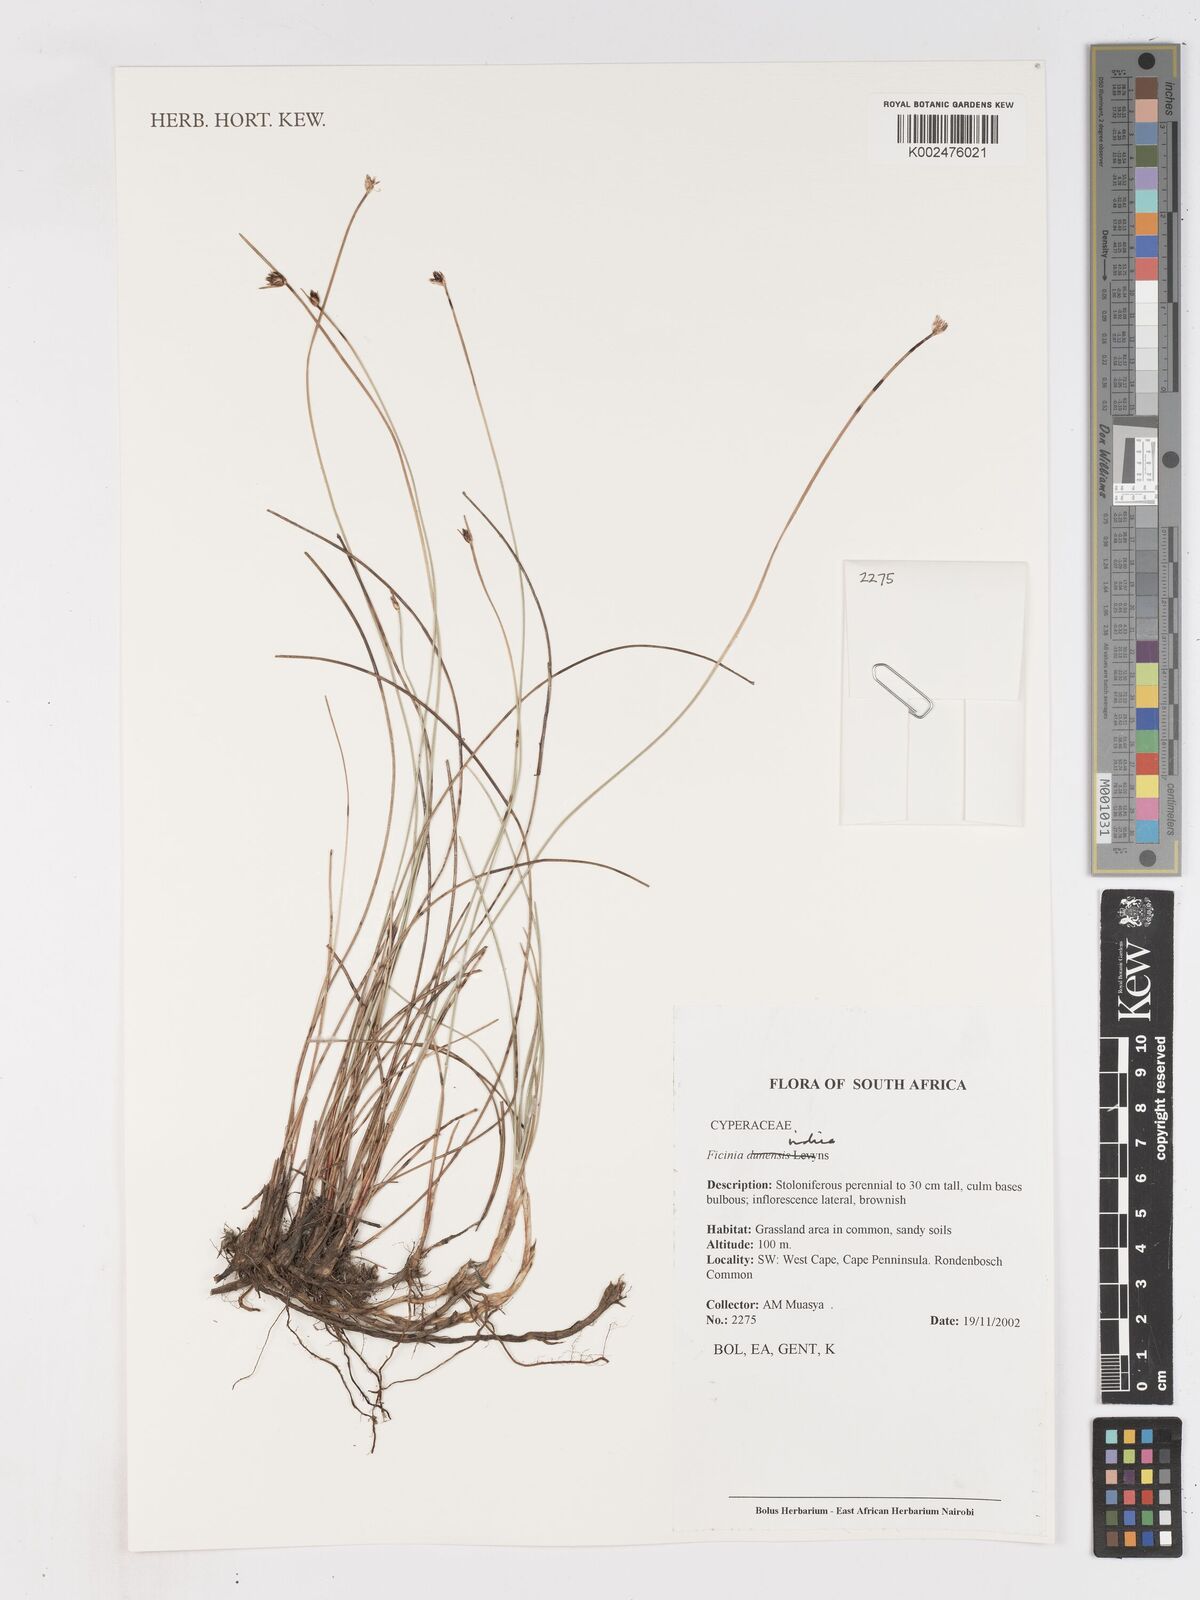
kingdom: Plantae
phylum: Tracheophyta
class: Liliopsida
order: Poales
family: Cyperaceae
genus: Ficinia
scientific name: Ficinia indica
